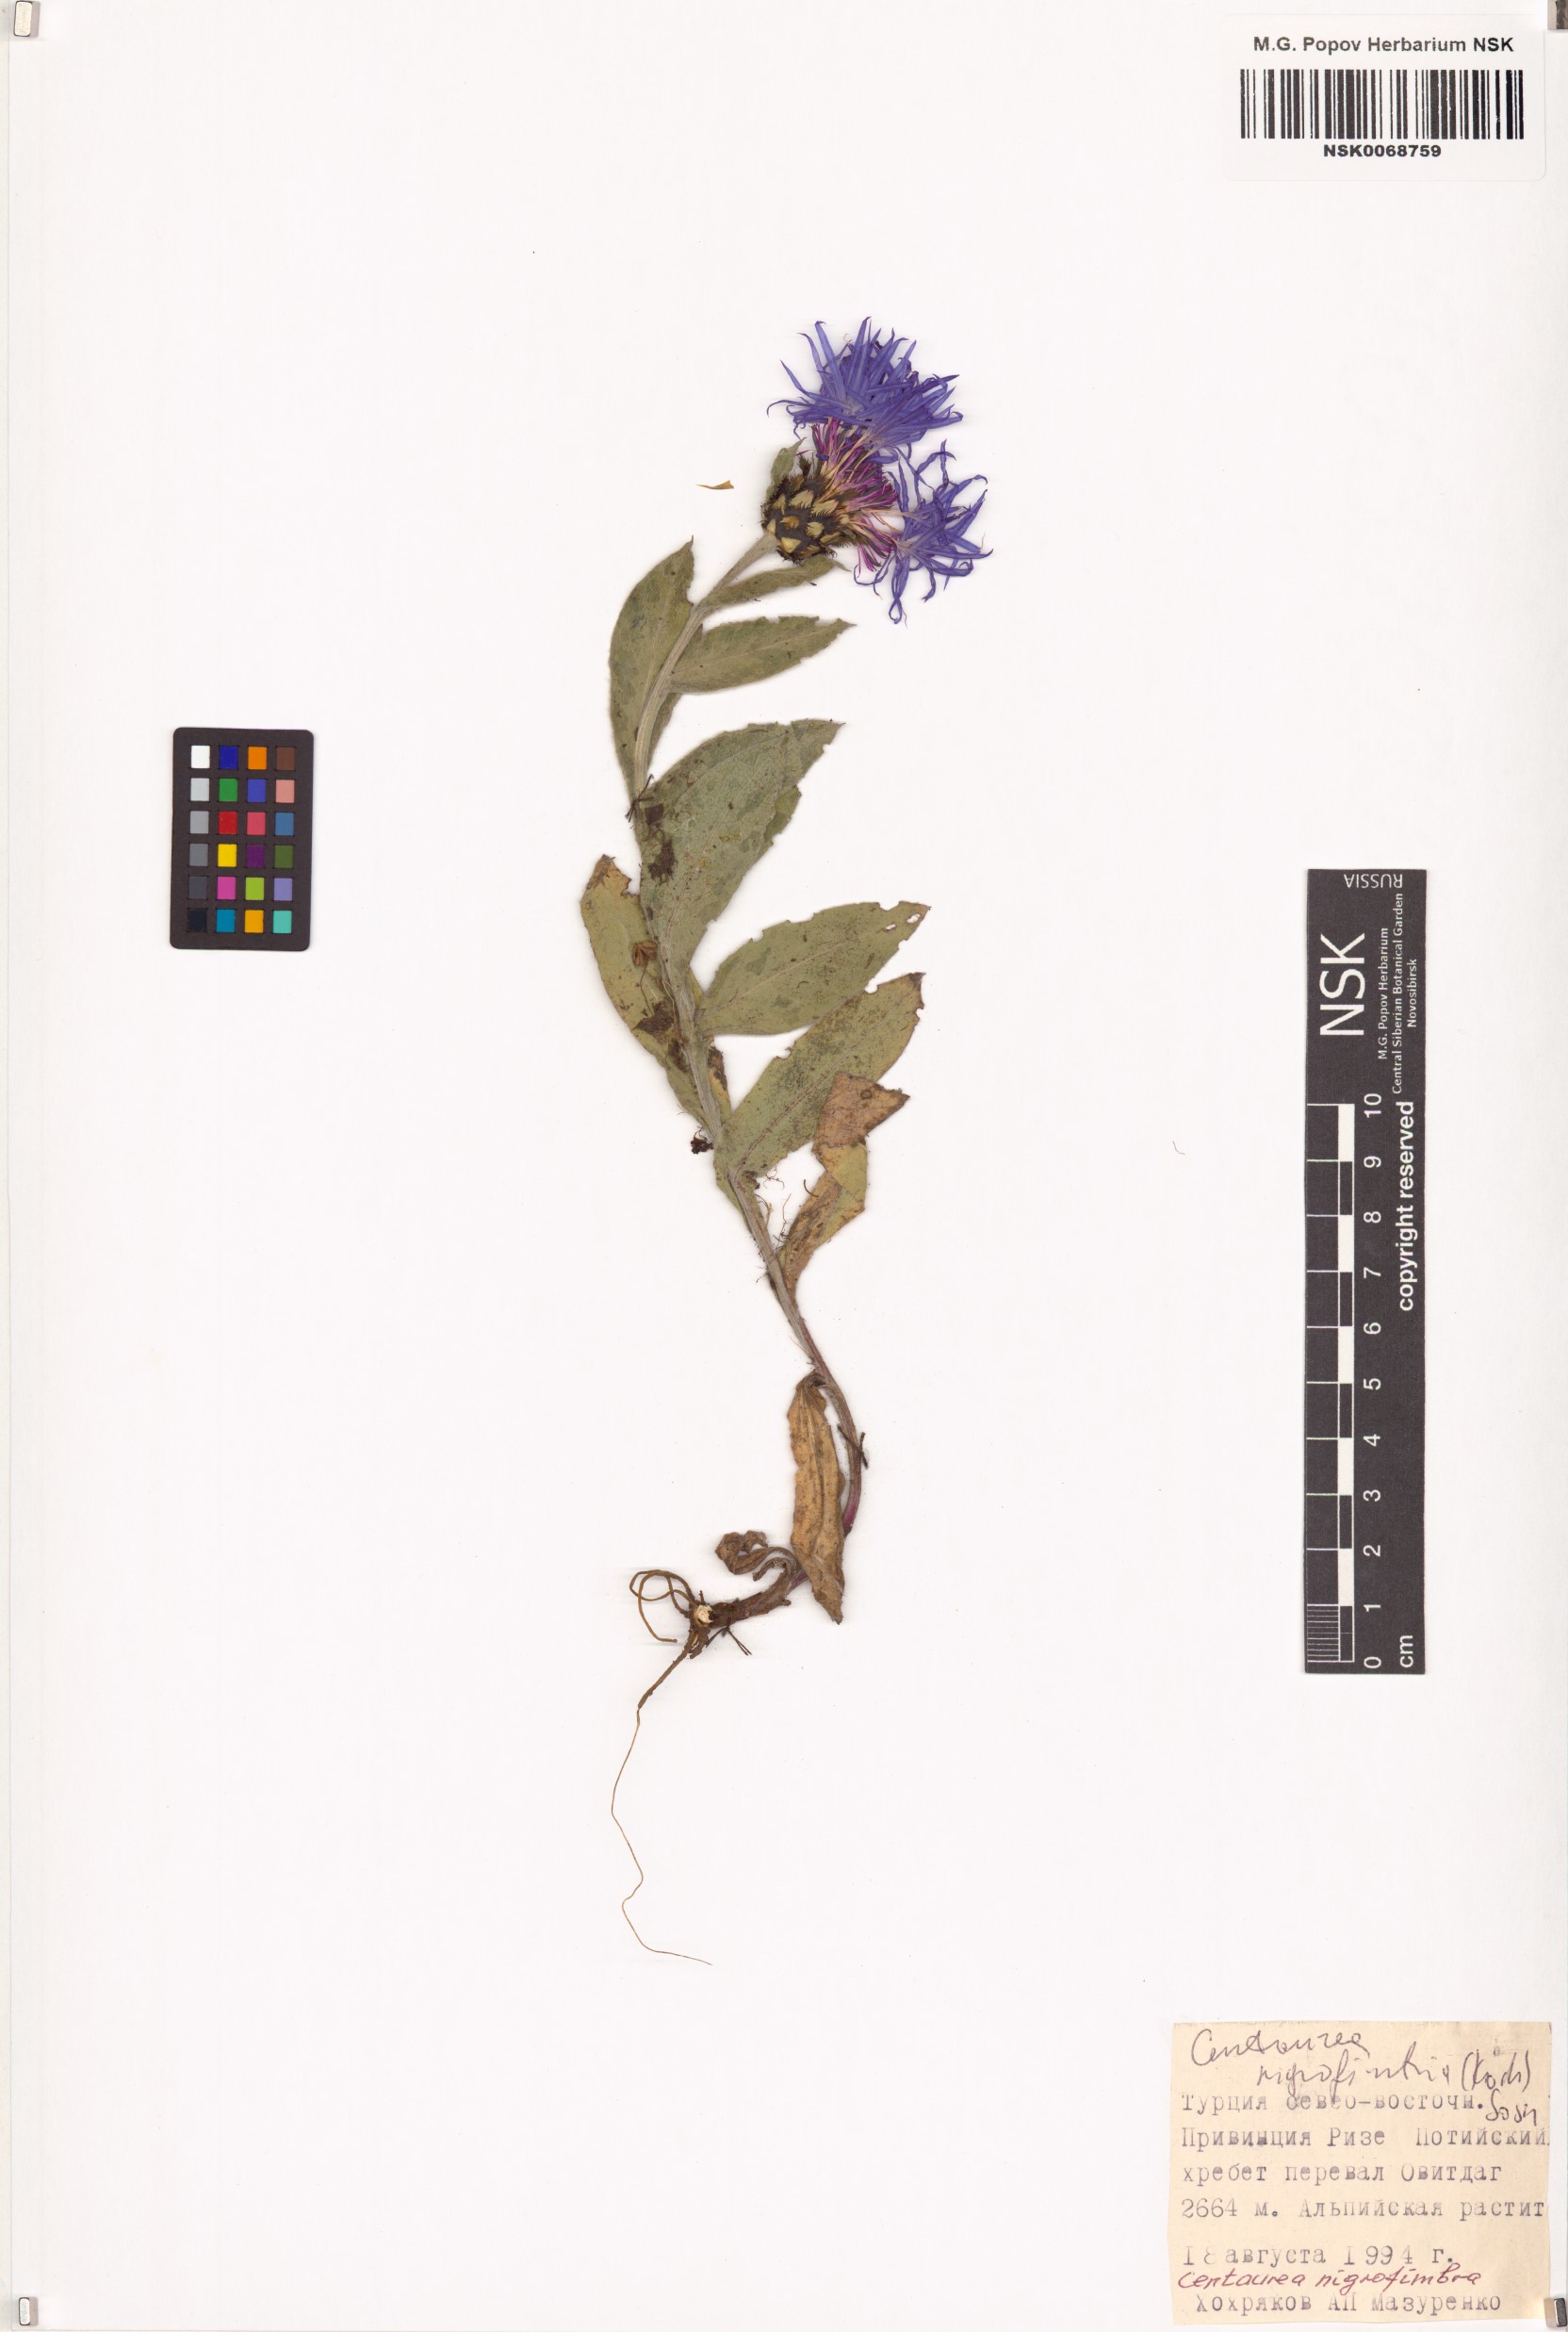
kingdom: Plantae
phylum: Tracheophyta
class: Magnoliopsida
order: Asterales
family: Asteraceae
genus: Centaurea
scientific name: Centaurea nigrofimbria
